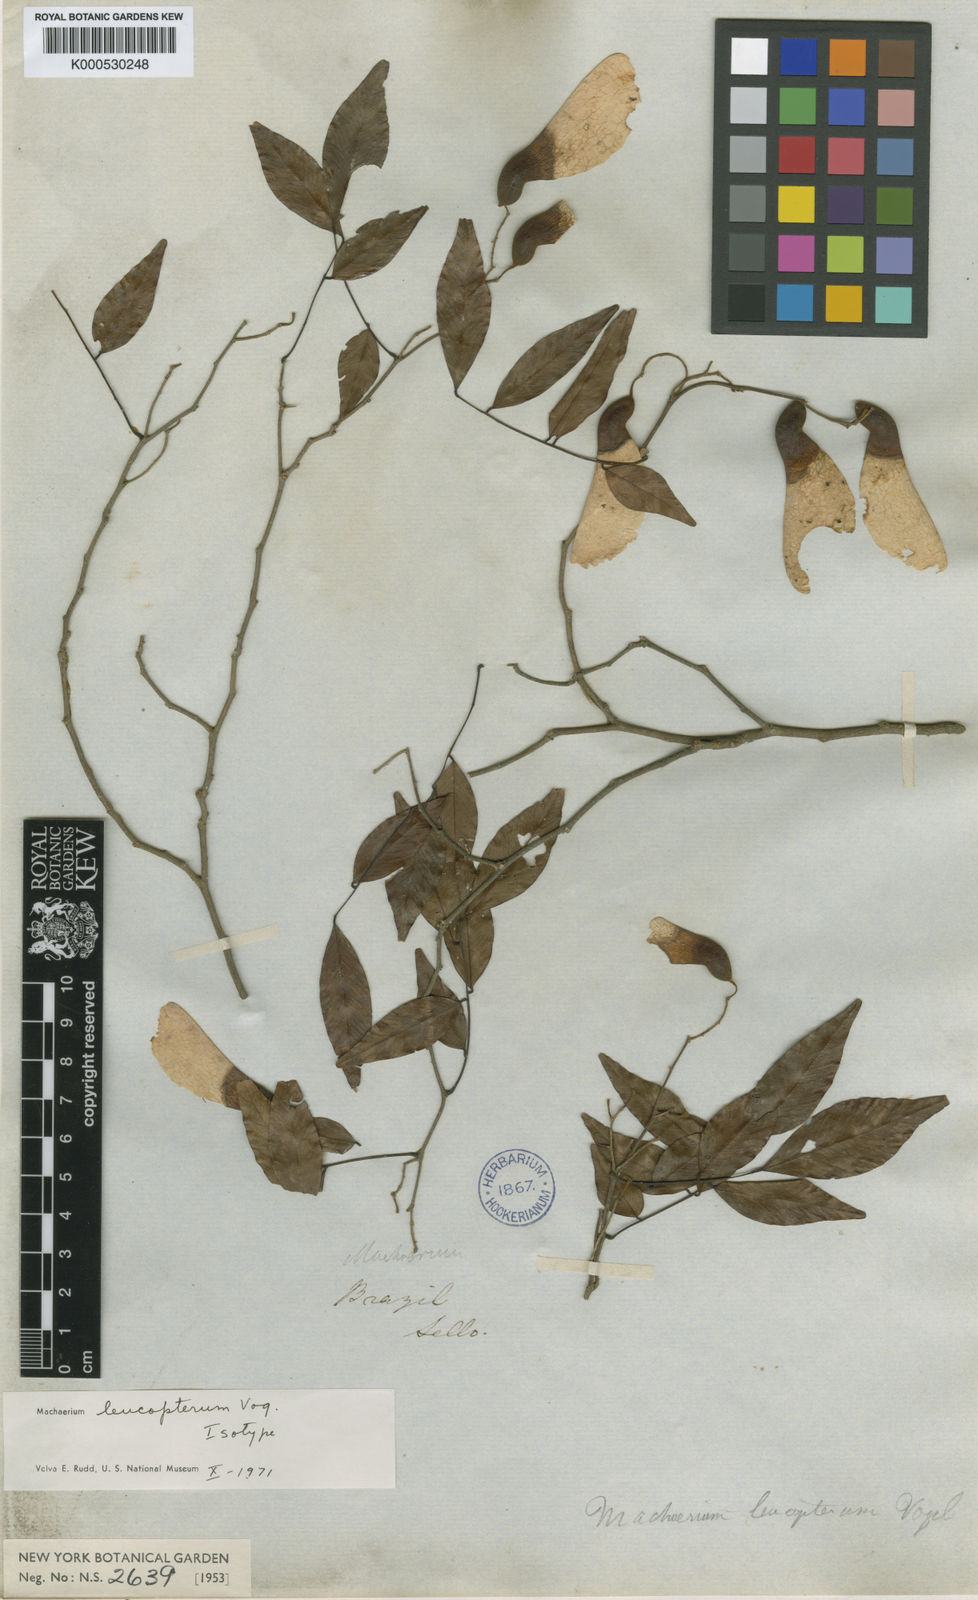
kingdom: Plantae
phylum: Tracheophyta
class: Magnoliopsida
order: Fabales
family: Fabaceae
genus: Machaerium
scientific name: Machaerium leucopterum
